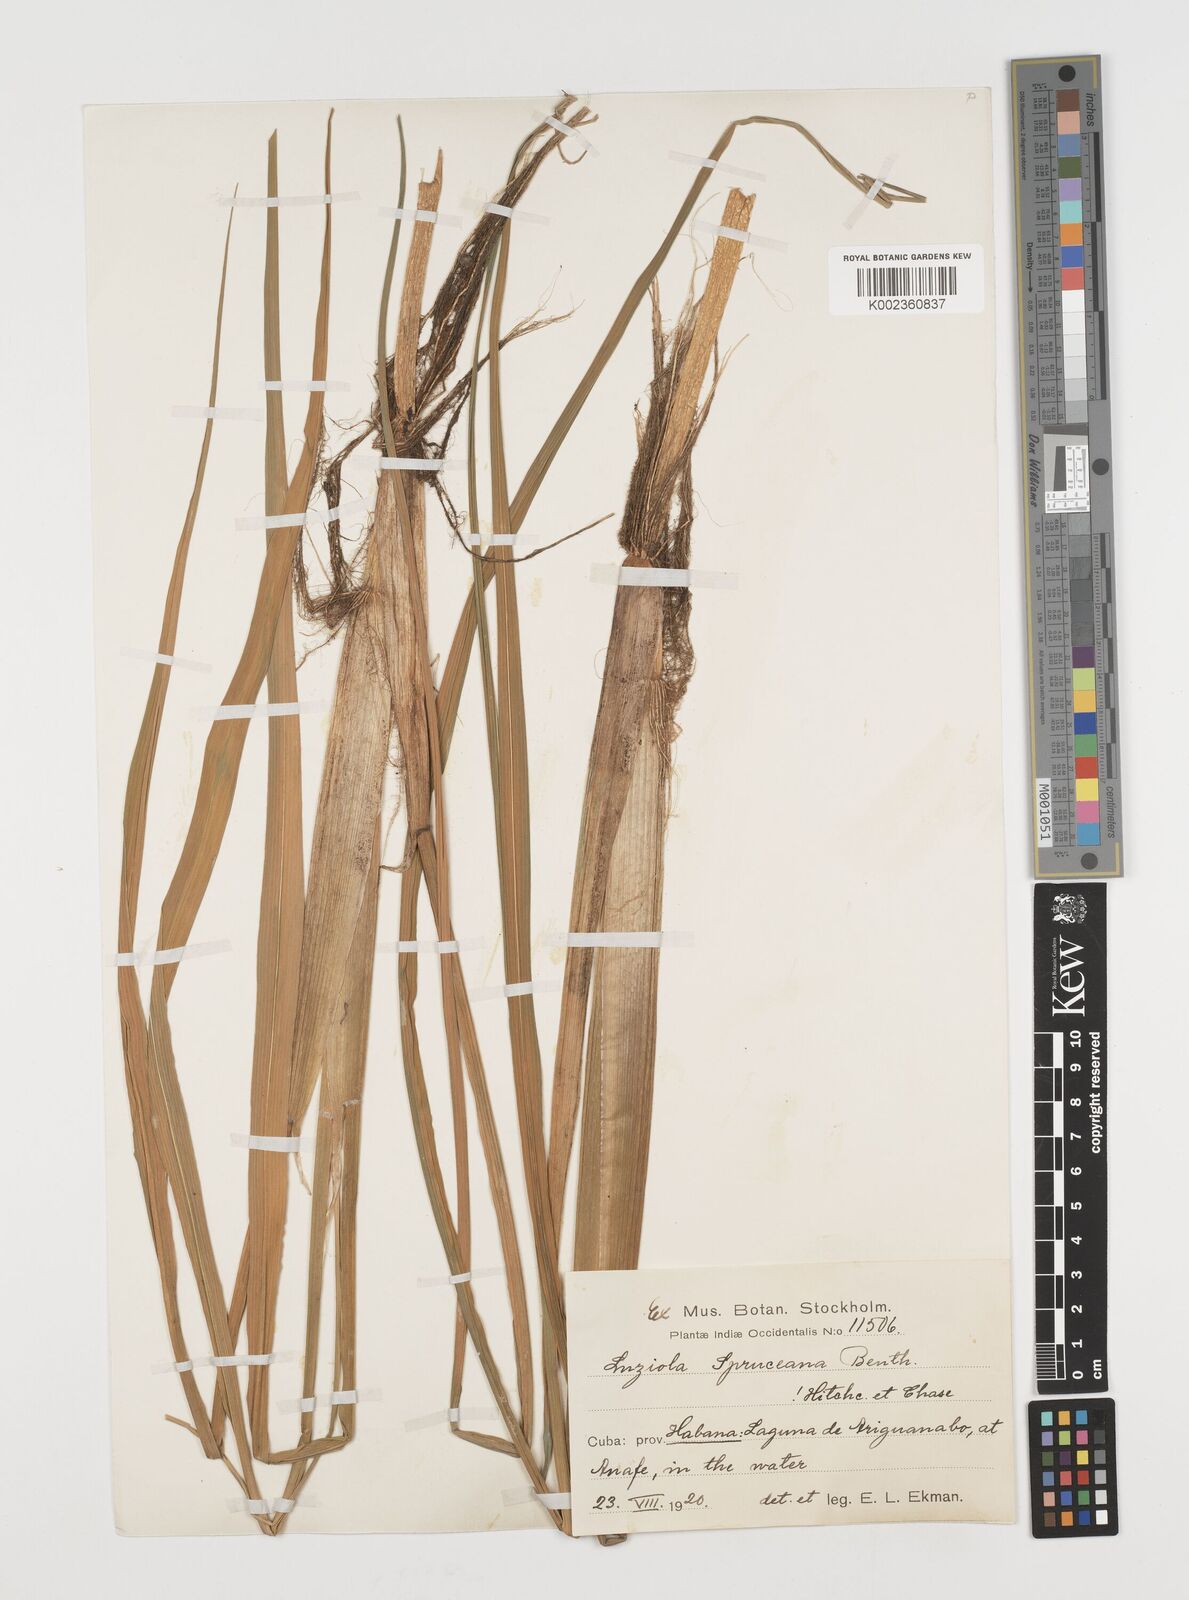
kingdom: Plantae
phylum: Tracheophyta
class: Liliopsida
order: Poales
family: Poaceae
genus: Luziola
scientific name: Luziola subintegra
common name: Large watergrass
